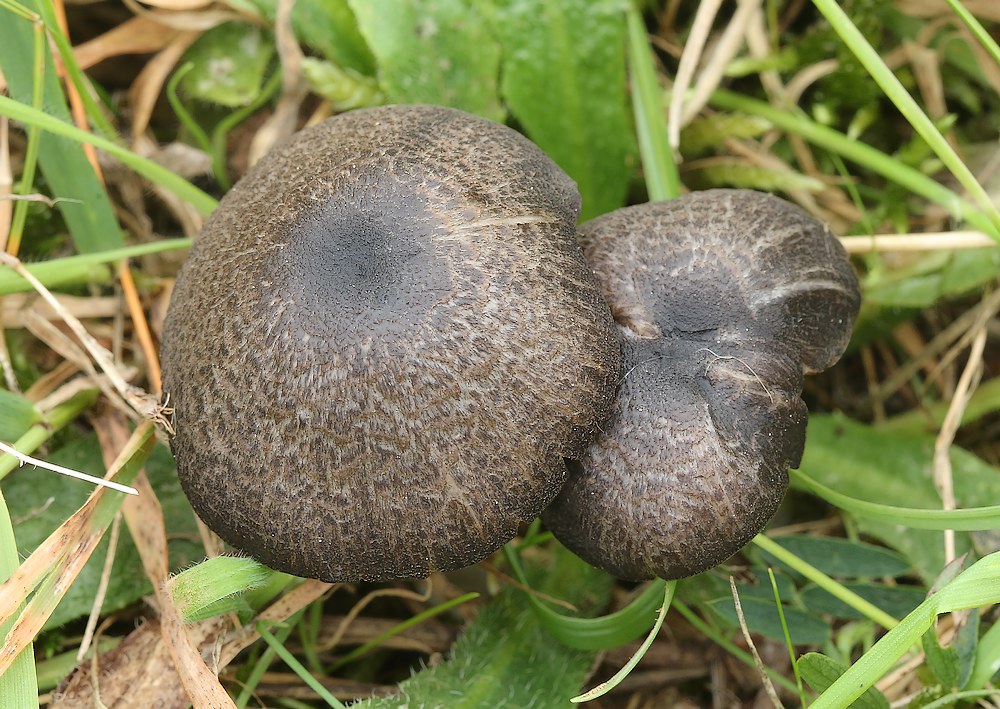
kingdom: Fungi
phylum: Basidiomycota
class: Agaricomycetes
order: Agaricales
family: Entolomataceae
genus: Entoloma
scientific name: Entoloma
